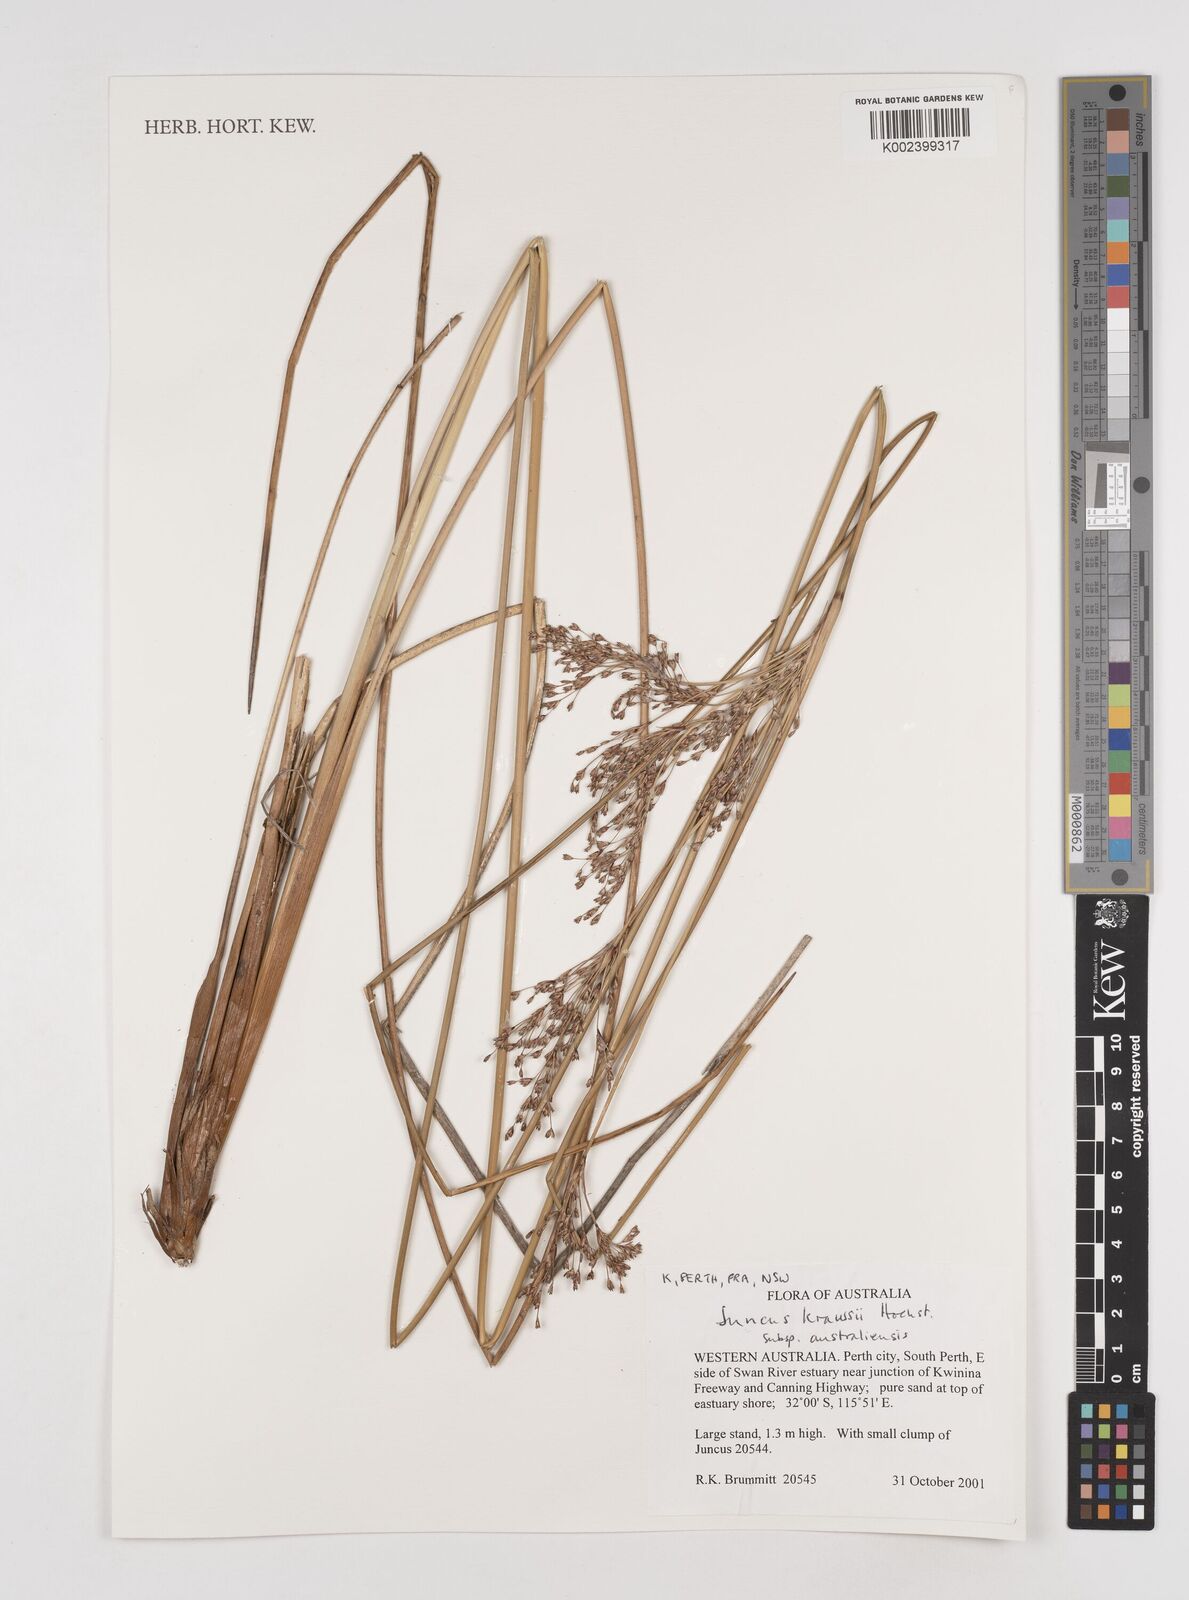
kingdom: Plantae
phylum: Tracheophyta
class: Liliopsida
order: Poales
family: Juncaceae
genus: Juncus
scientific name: Juncus kraussii
